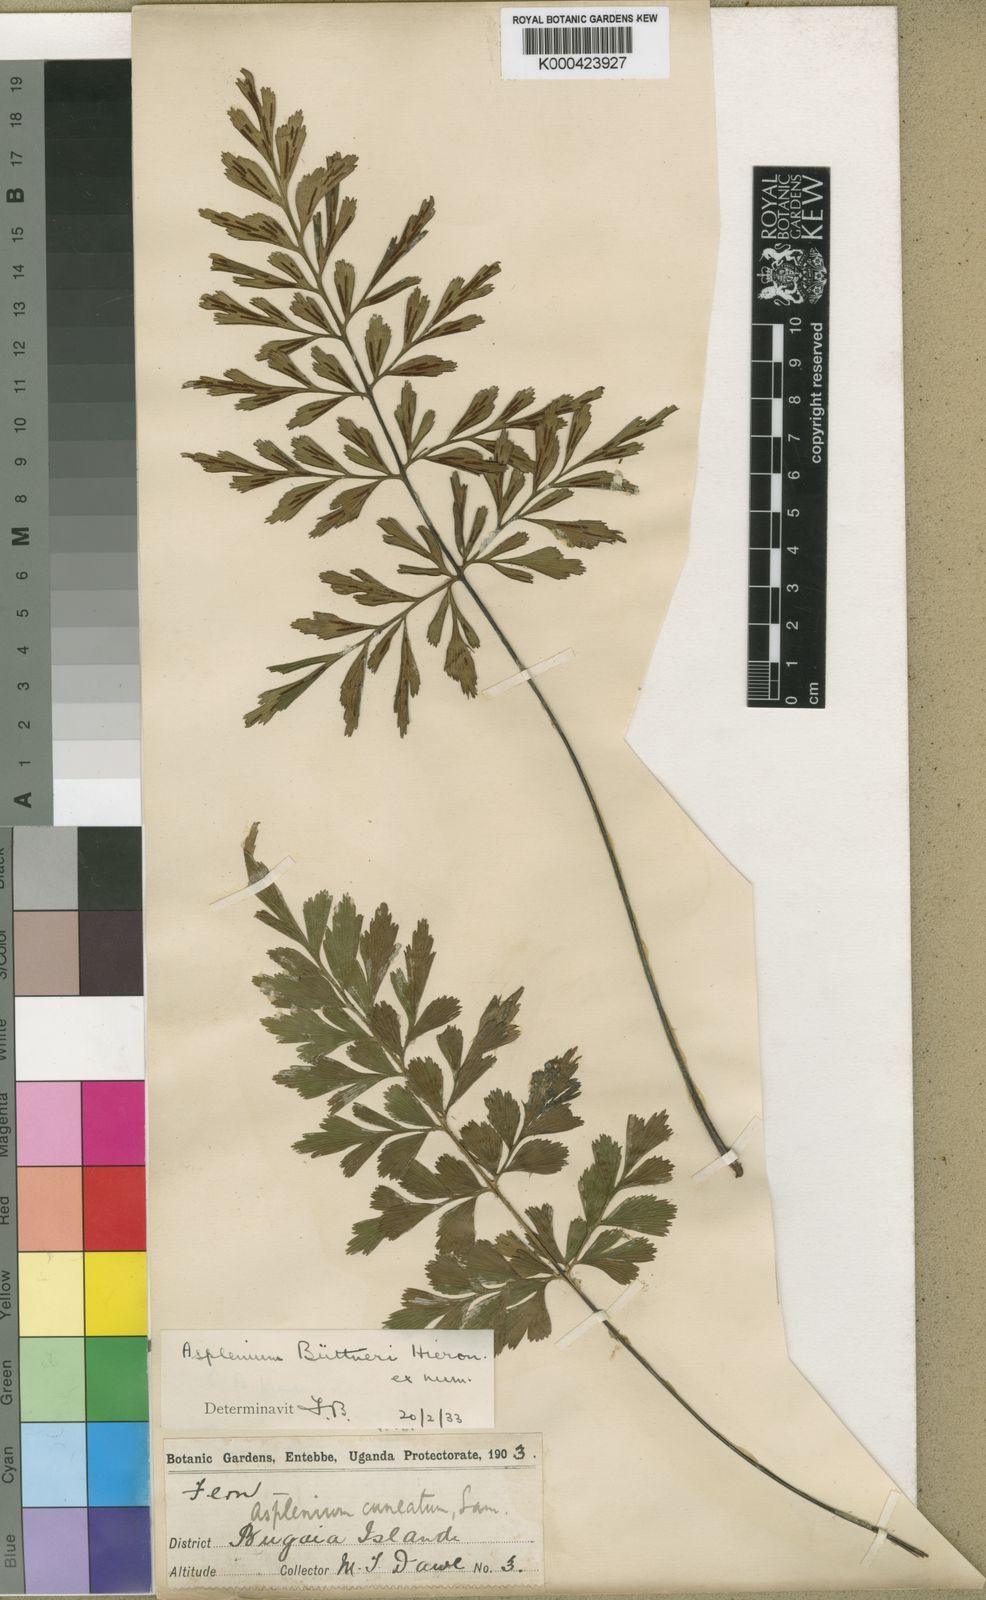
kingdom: Plantae
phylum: Tracheophyta
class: Polypodiopsida
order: Polypodiales
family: Aspleniaceae
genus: Asplenium
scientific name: Asplenium
